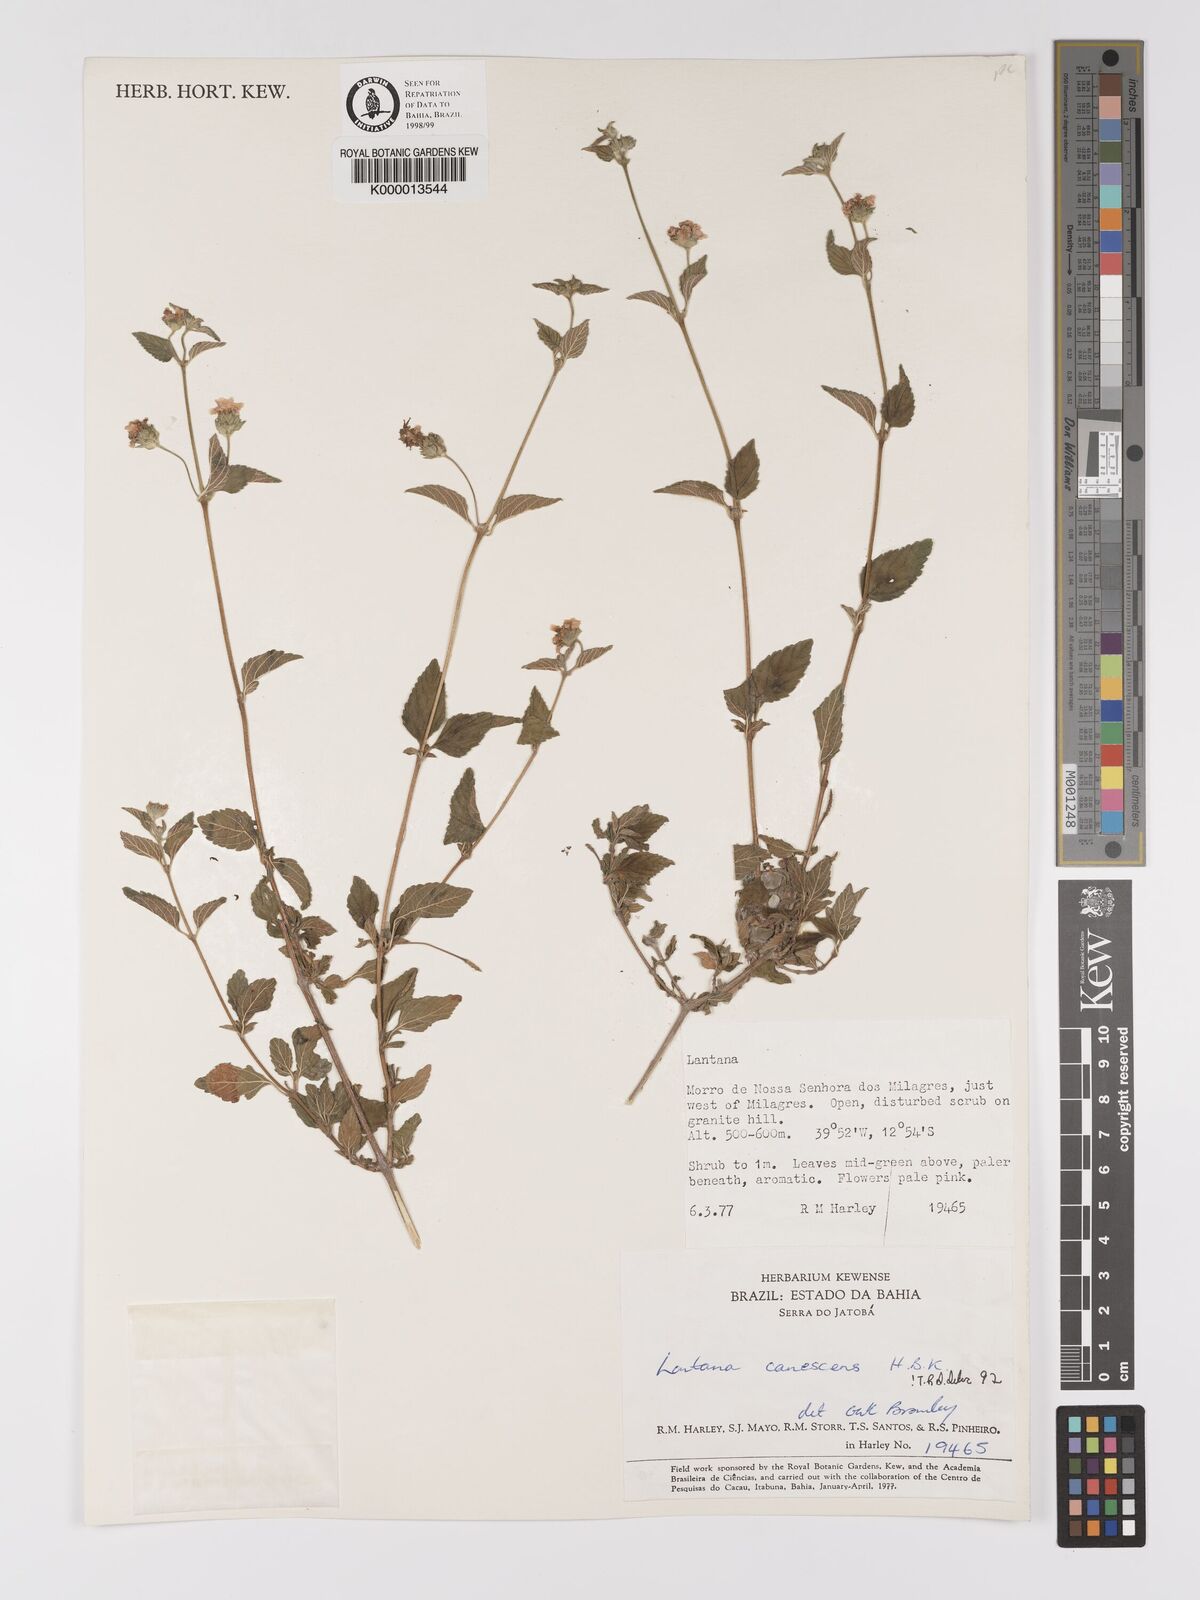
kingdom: Plantae
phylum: Tracheophyta
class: Magnoliopsida
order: Lamiales
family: Verbenaceae
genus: Lantana
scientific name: Lantana canescens
